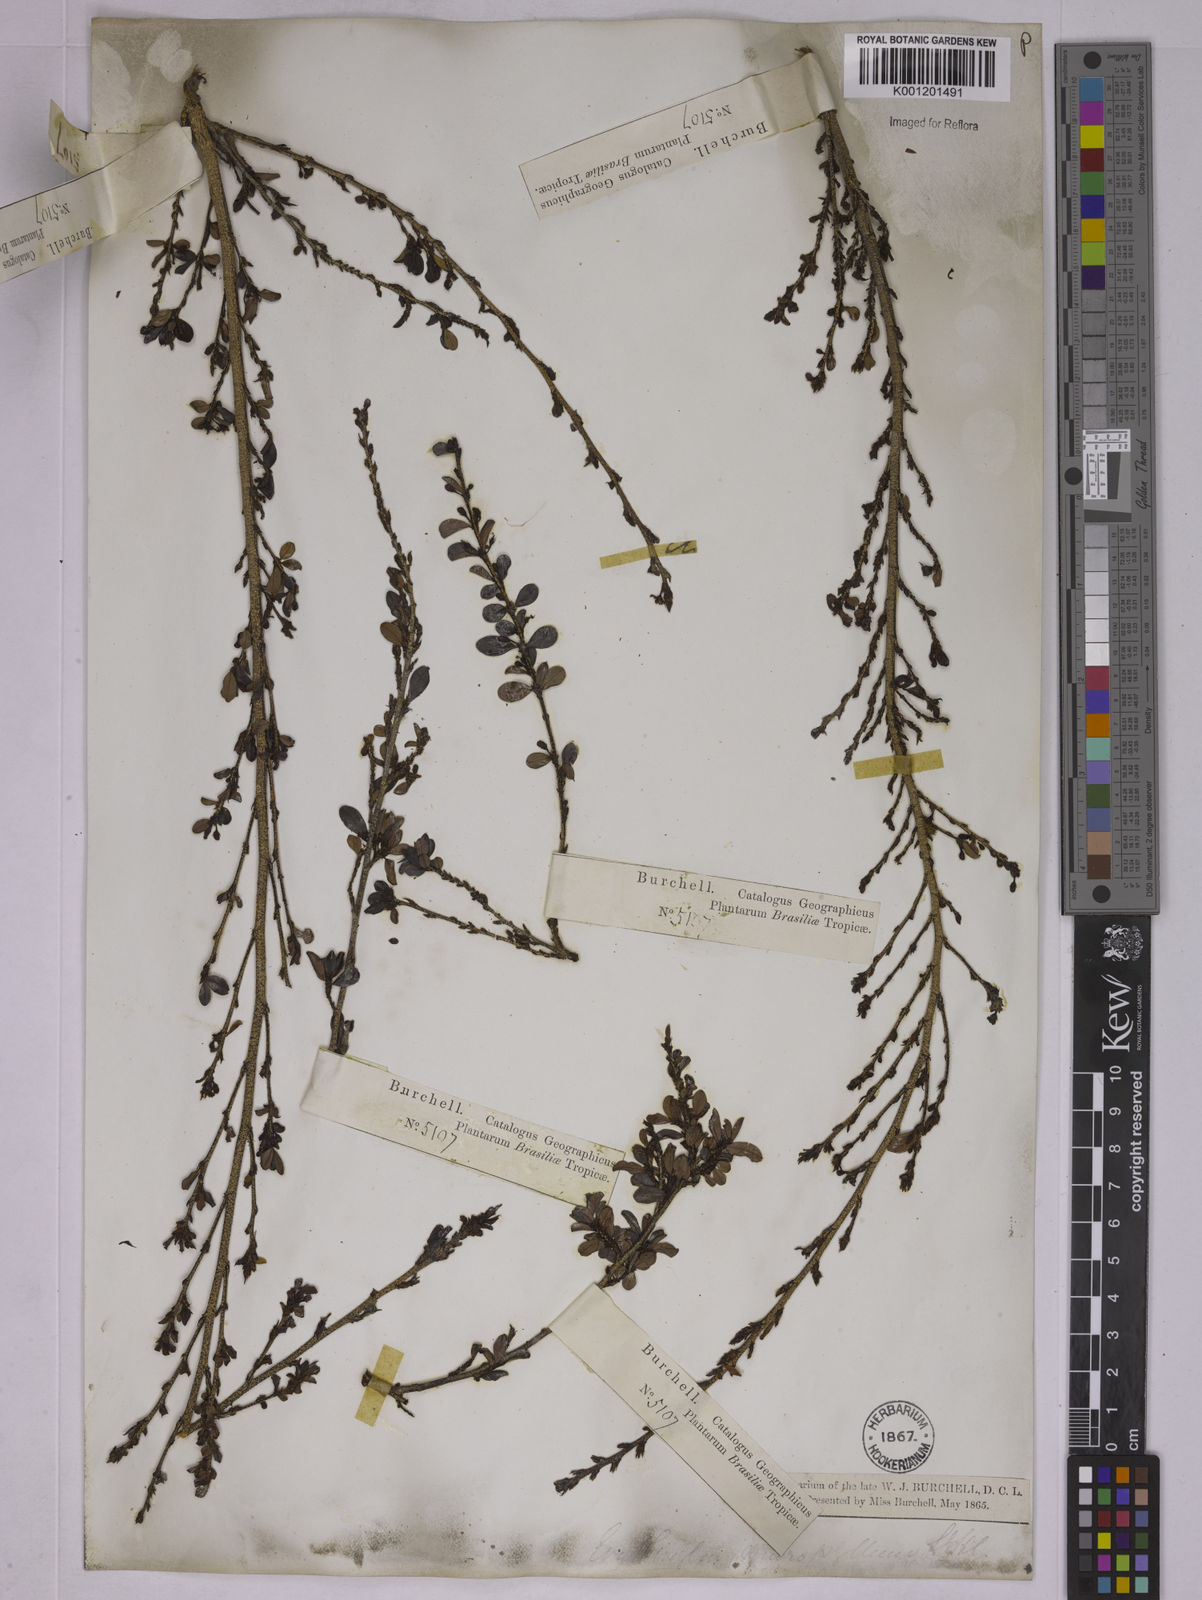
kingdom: Plantae
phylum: Tracheophyta
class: Magnoliopsida
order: Malpighiales
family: Erythroxylaceae
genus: Erythroxylum
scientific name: Erythroxylum
